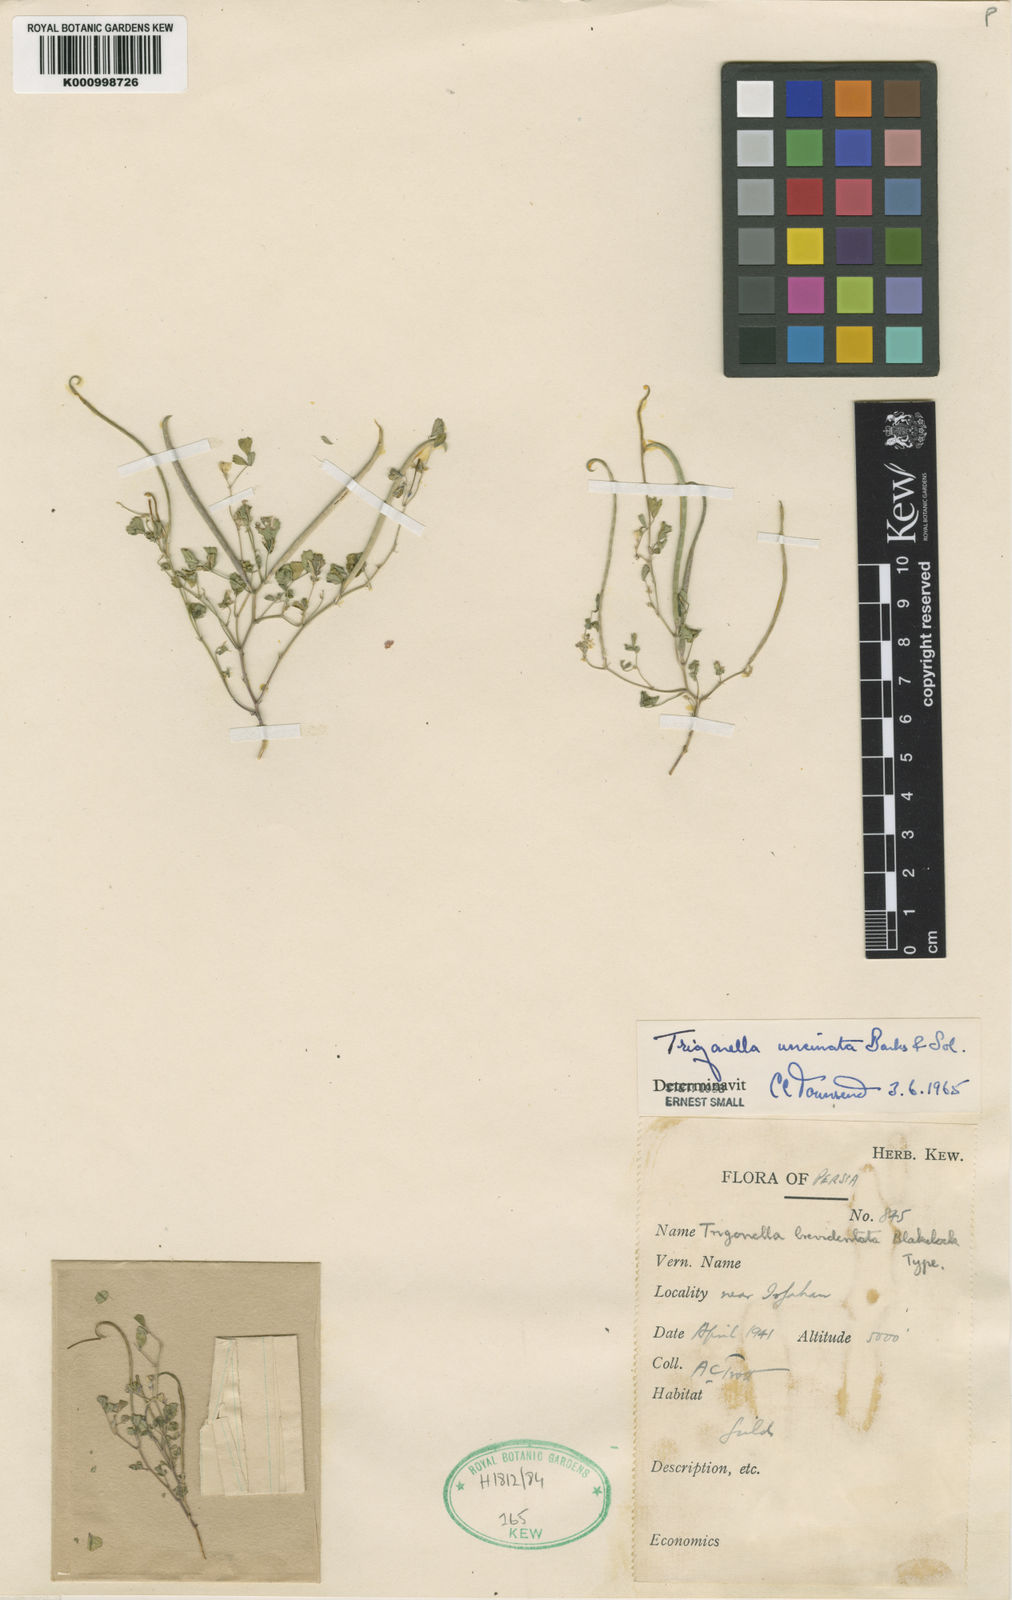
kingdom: Plantae
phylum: Tracheophyta
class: Magnoliopsida
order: Fabales
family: Fabaceae
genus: Trigonella
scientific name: Trigonella
